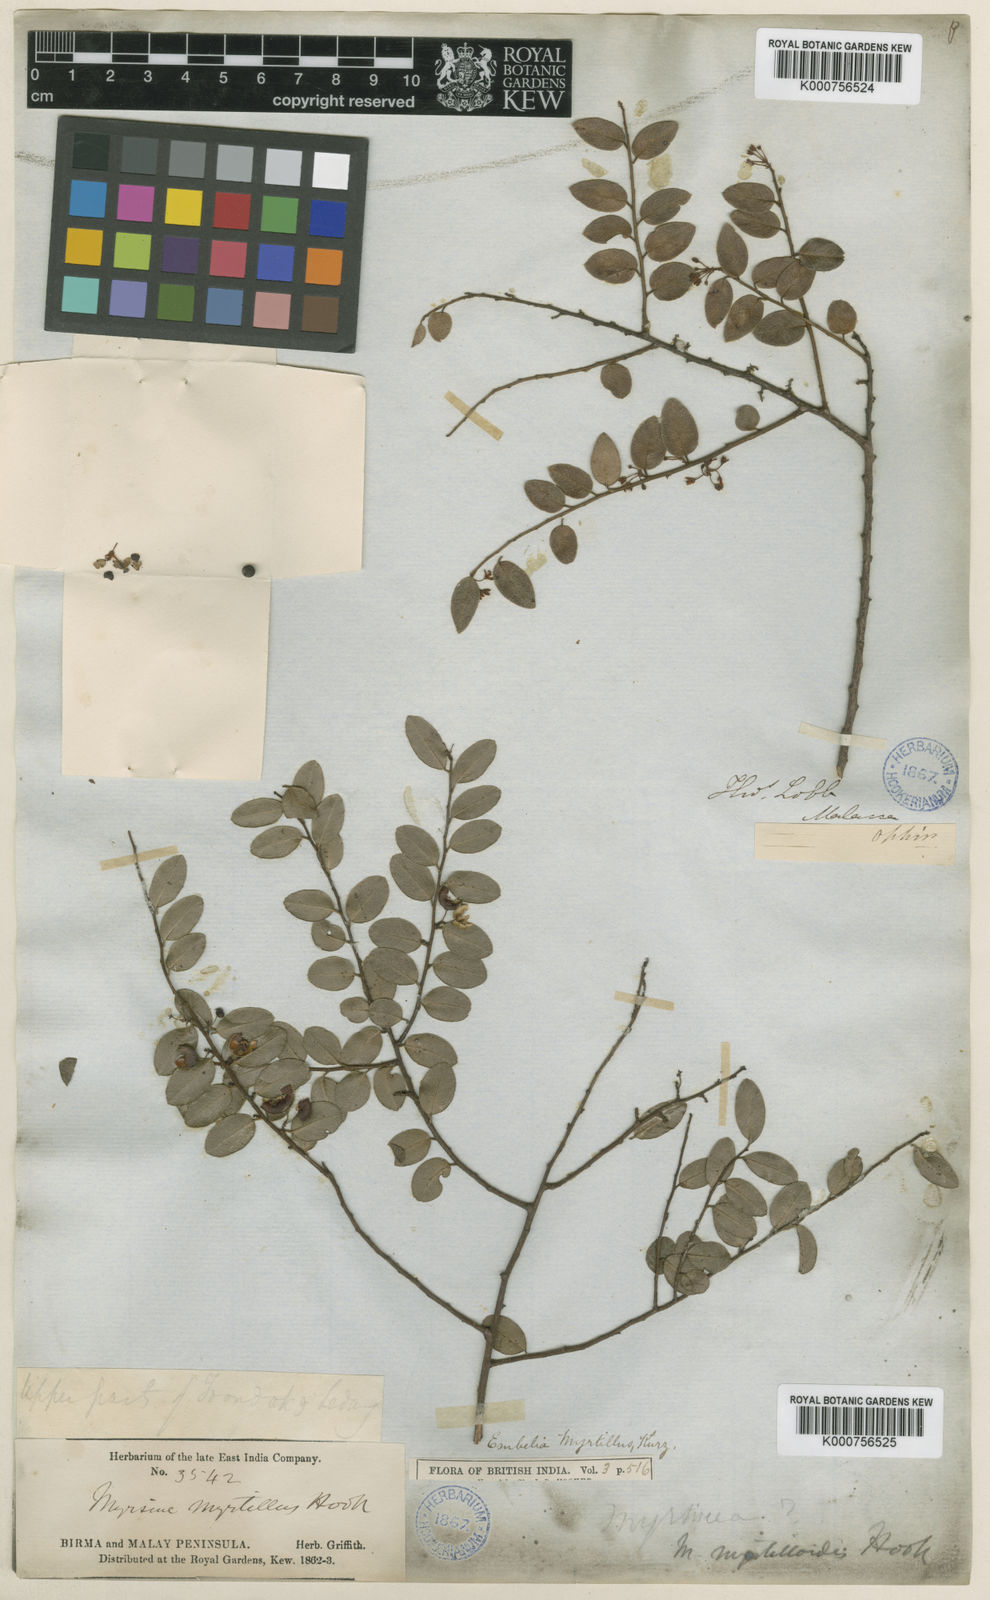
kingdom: Plantae
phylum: Tracheophyta
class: Magnoliopsida
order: Ericales
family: Primulaceae
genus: Embelia
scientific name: Embelia myrtillus
